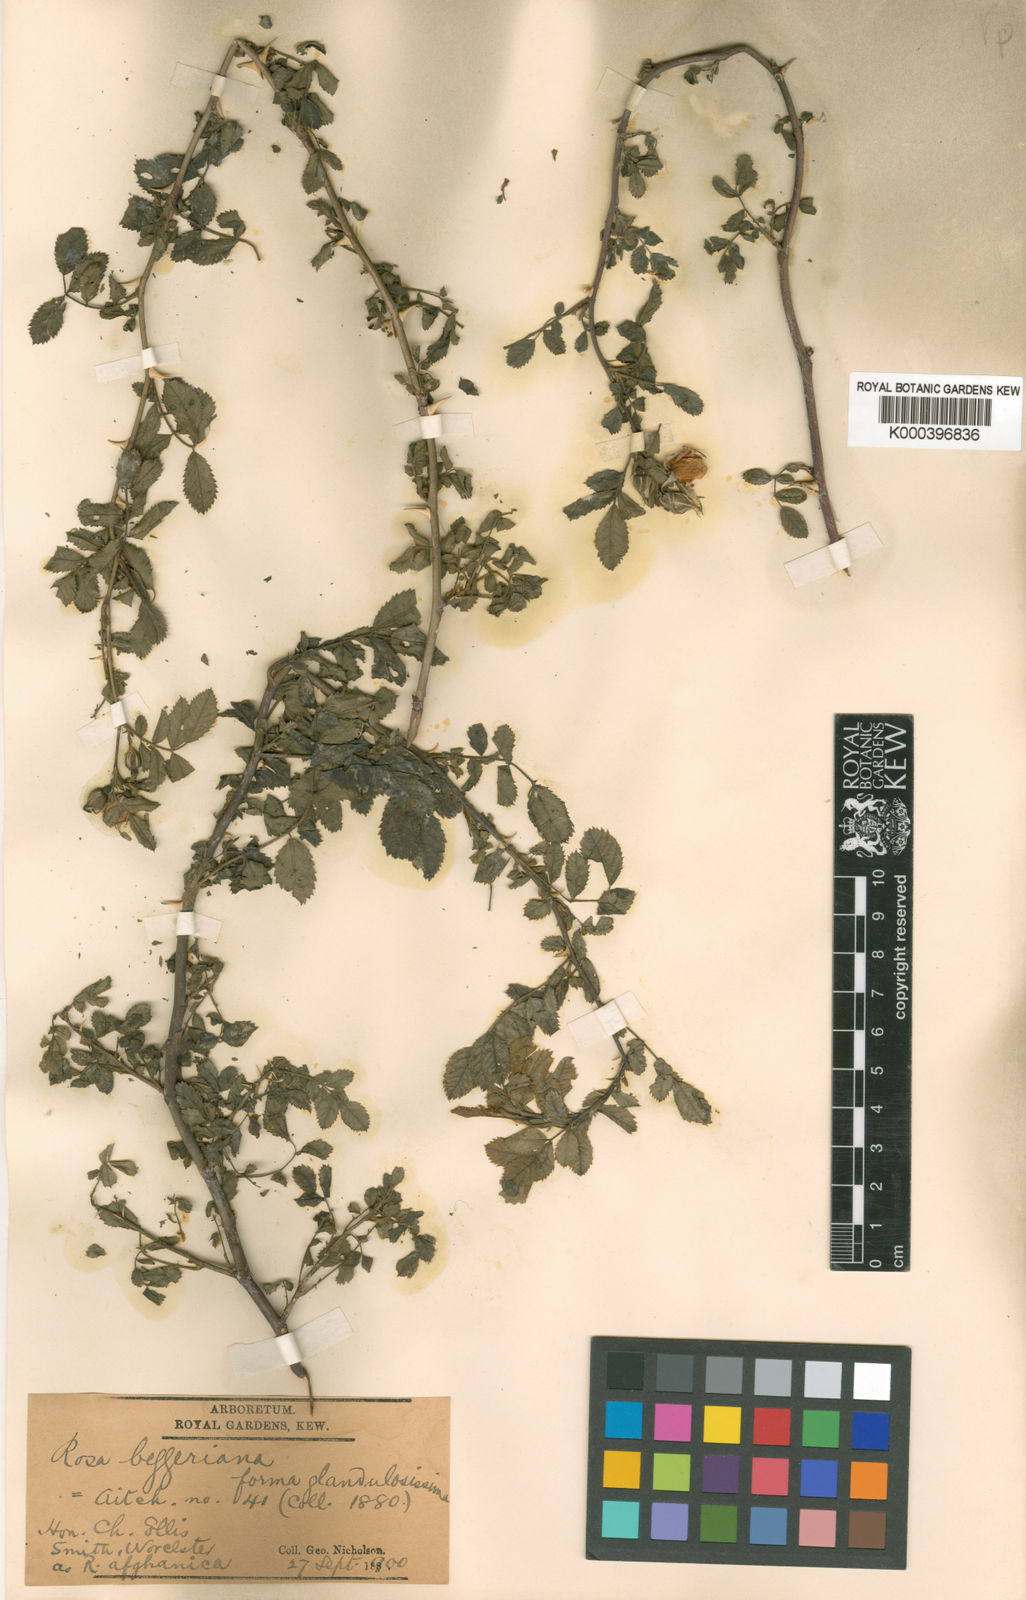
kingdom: Plantae
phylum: Tracheophyta
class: Magnoliopsida
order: Rosales
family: Rosaceae
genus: Rosa
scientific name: Rosa beggeriana
